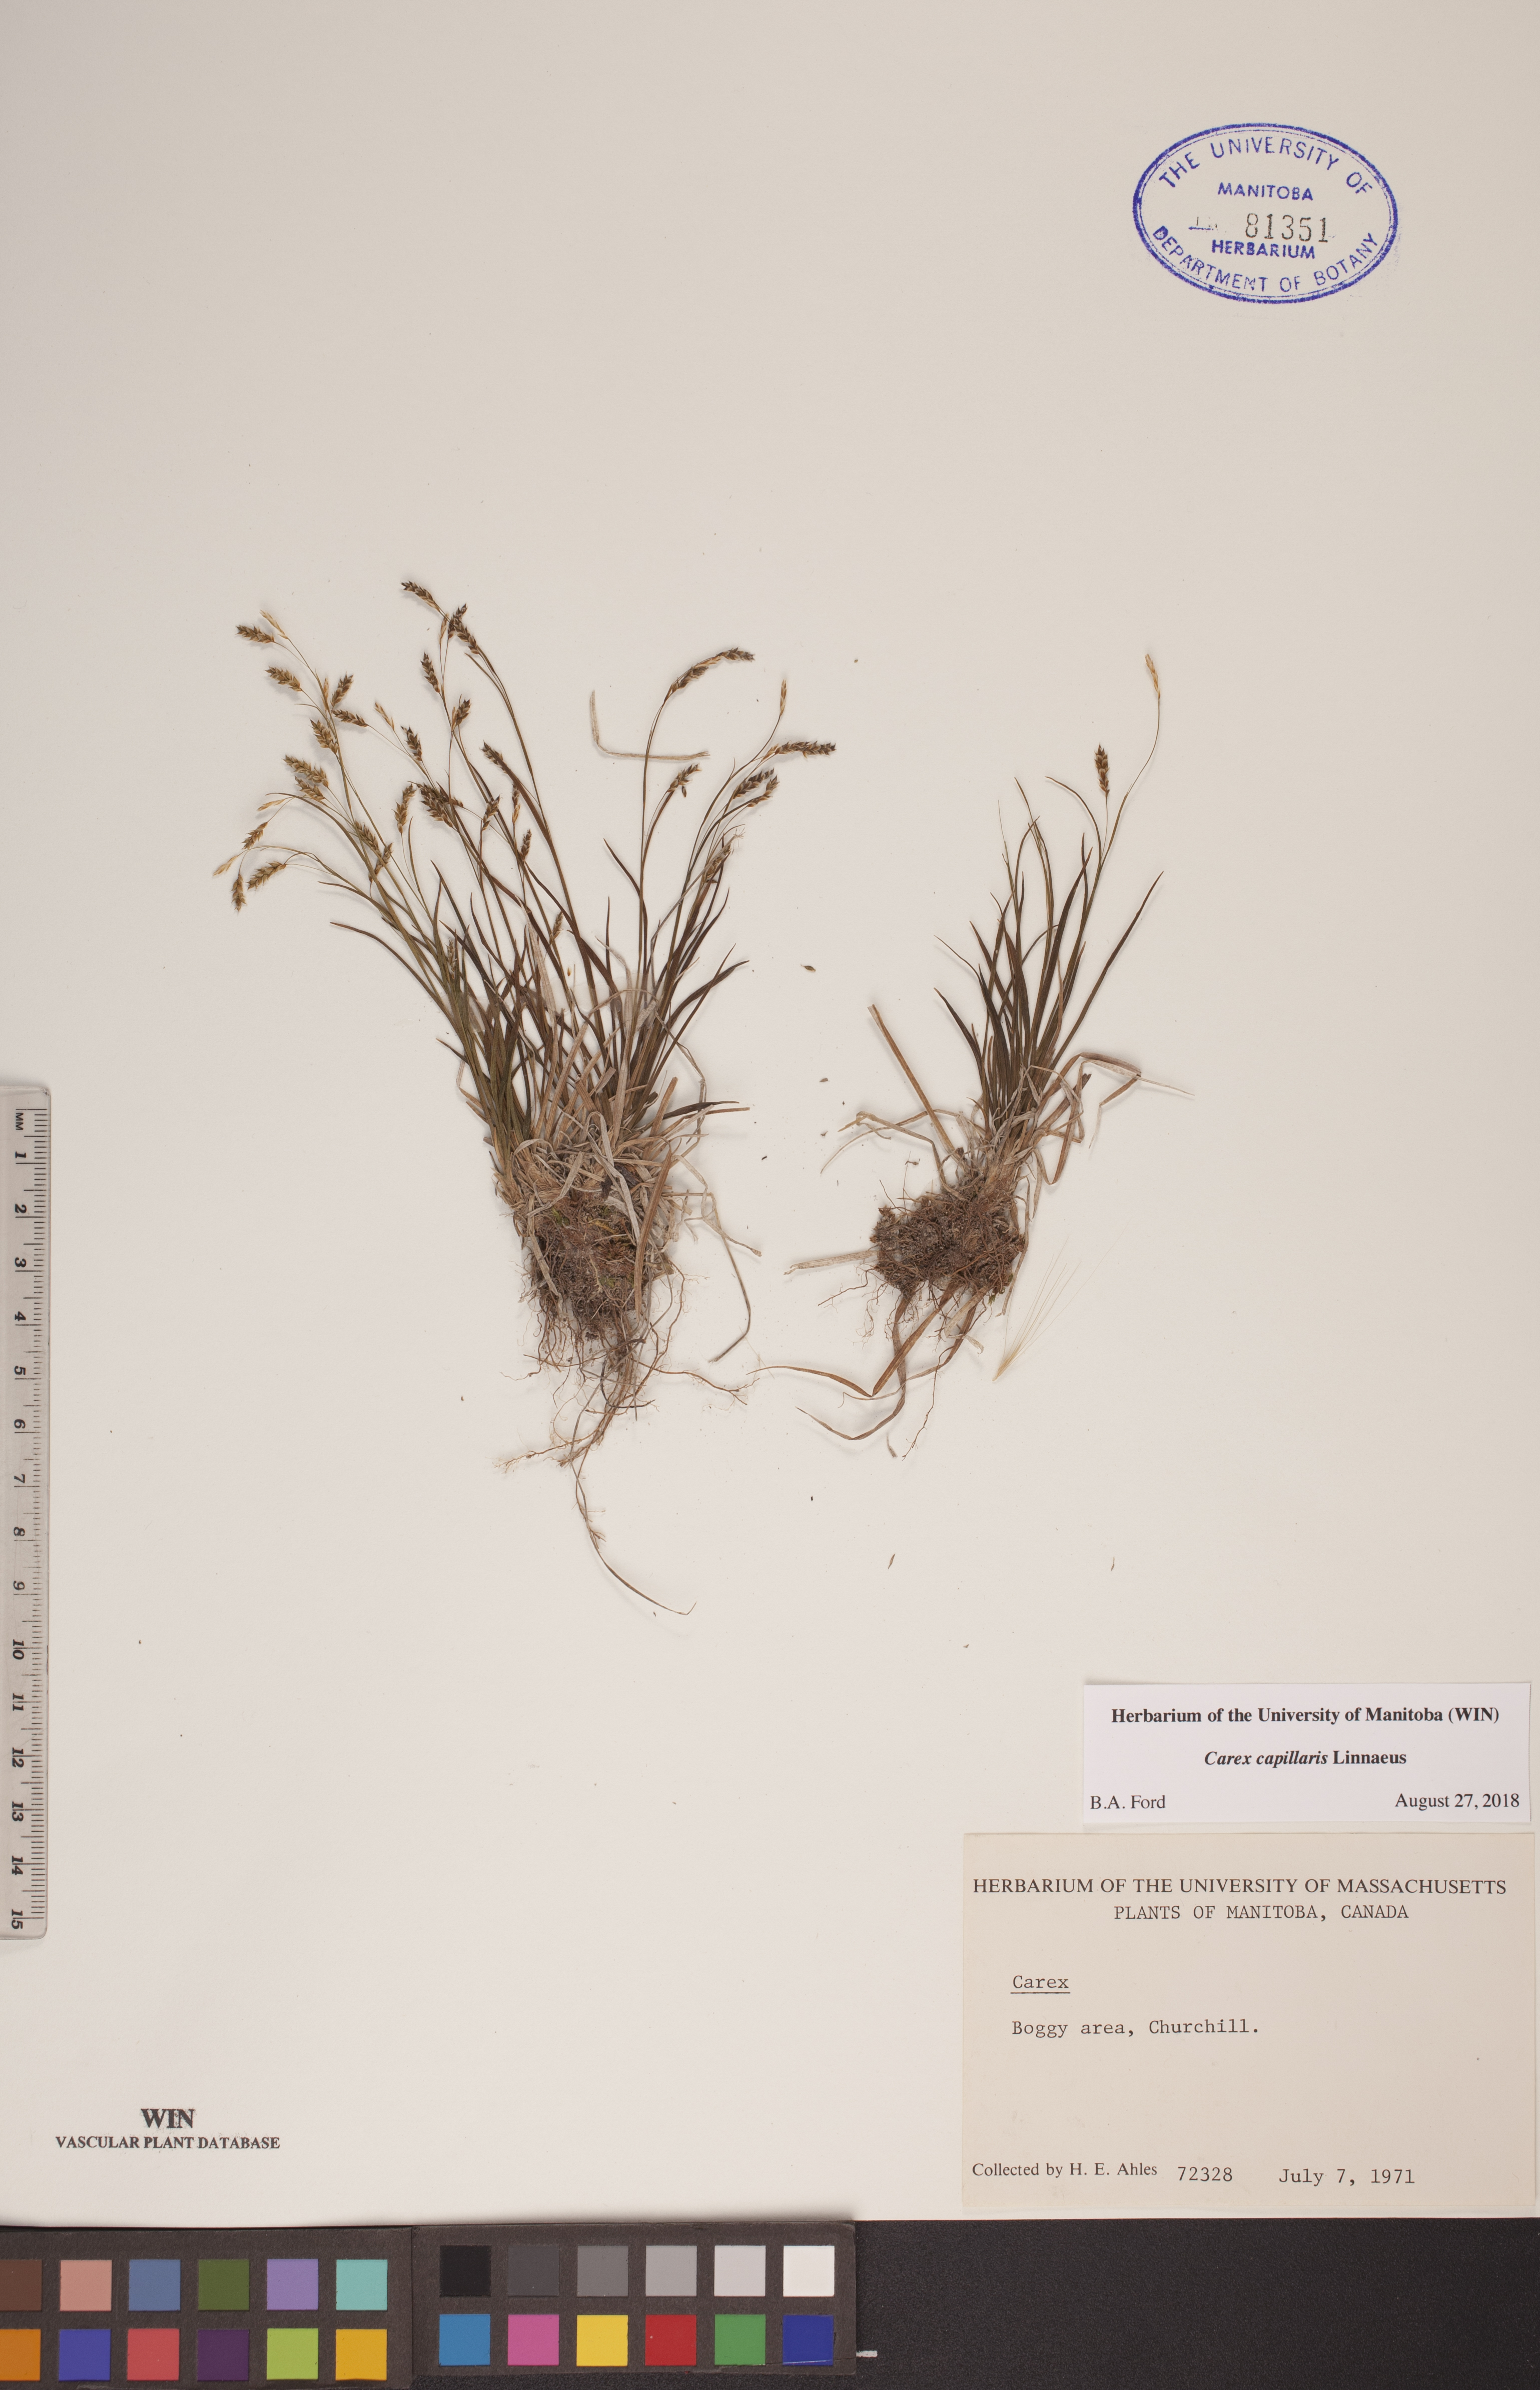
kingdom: Plantae
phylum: Tracheophyta
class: Liliopsida
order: Poales
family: Cyperaceae
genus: Carex
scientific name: Carex capillaris
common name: Hair sedge
